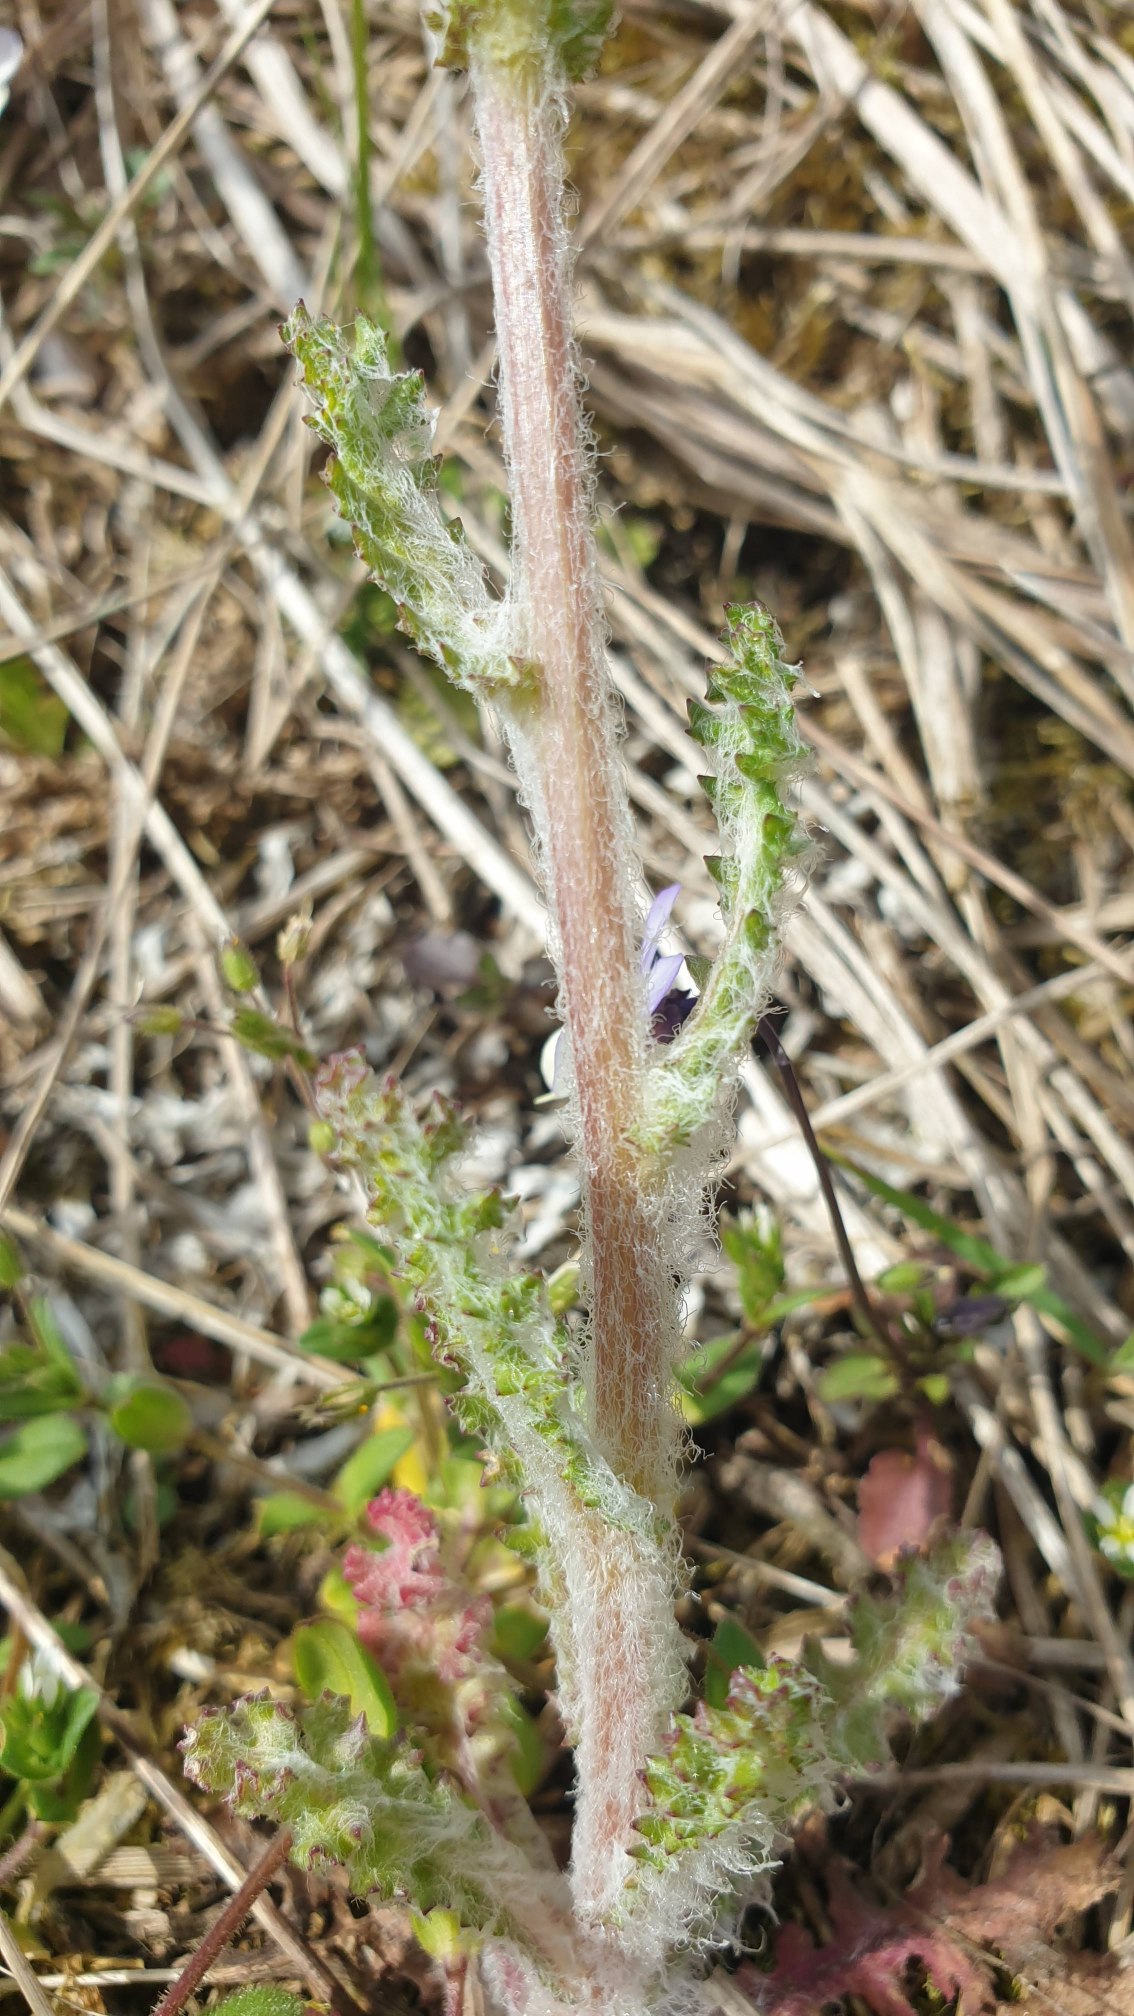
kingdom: Plantae
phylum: Tracheophyta
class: Magnoliopsida
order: Asterales
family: Asteraceae
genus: Senecio
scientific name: Senecio leucanthemifolius
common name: Vår-brandbæger
